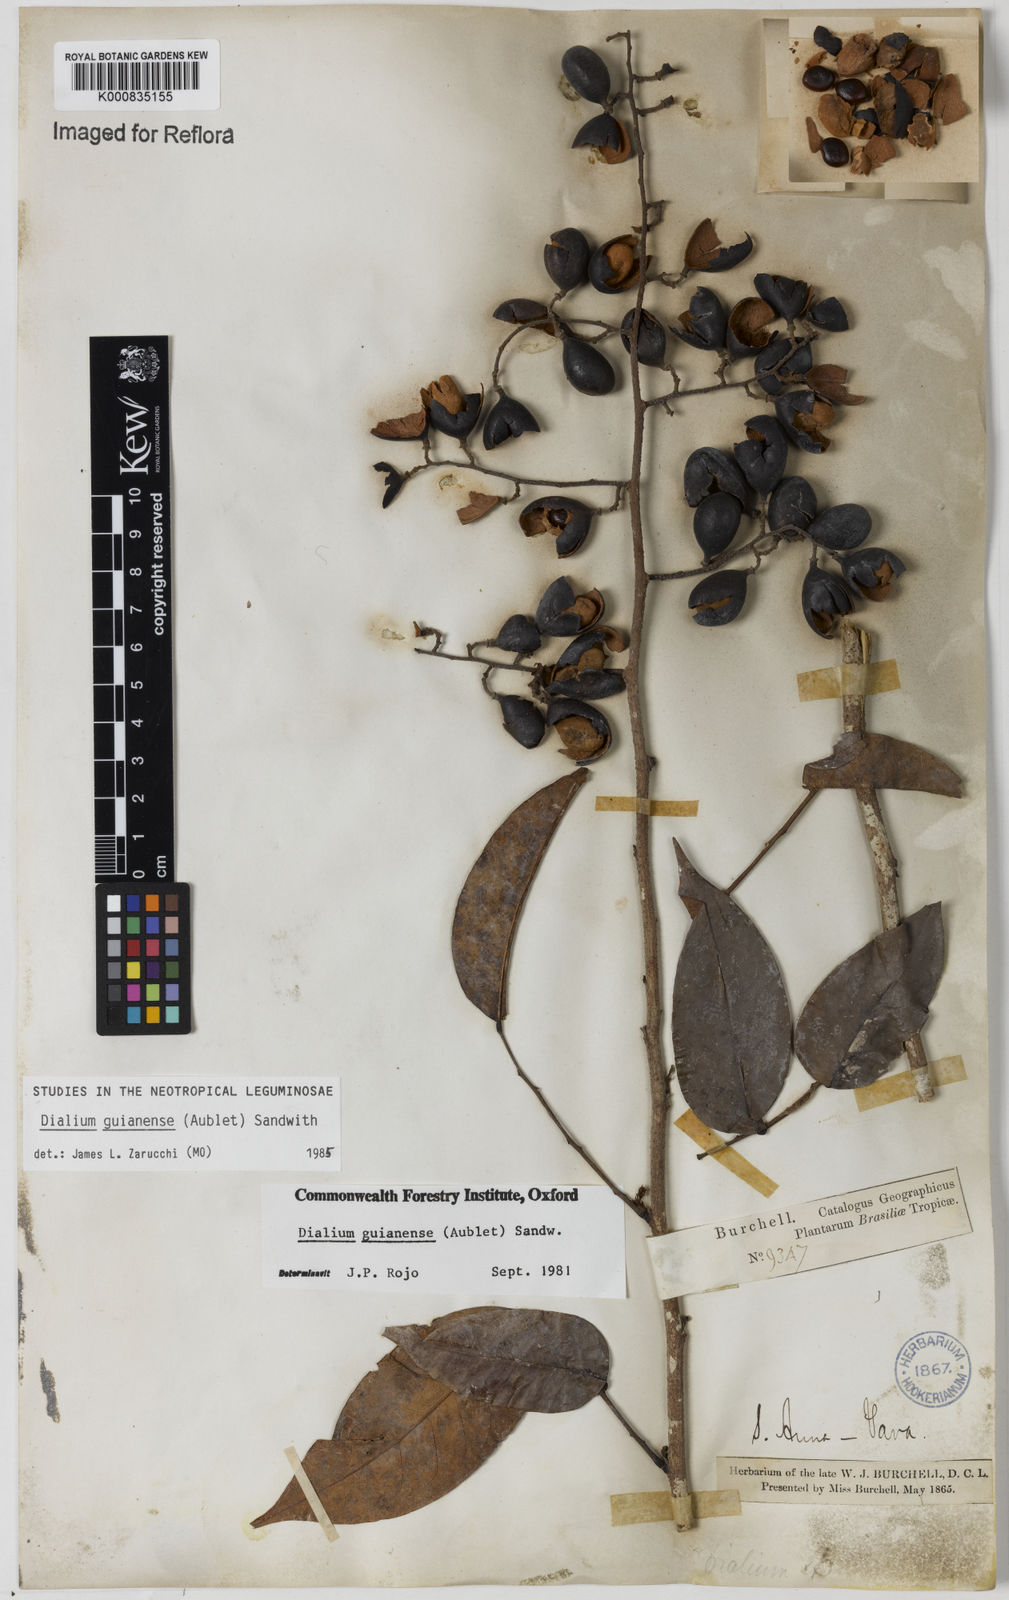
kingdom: Plantae
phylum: Tracheophyta
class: Magnoliopsida
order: Fabales
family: Fabaceae
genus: Dialium
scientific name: Dialium guianense
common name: Ironwood
